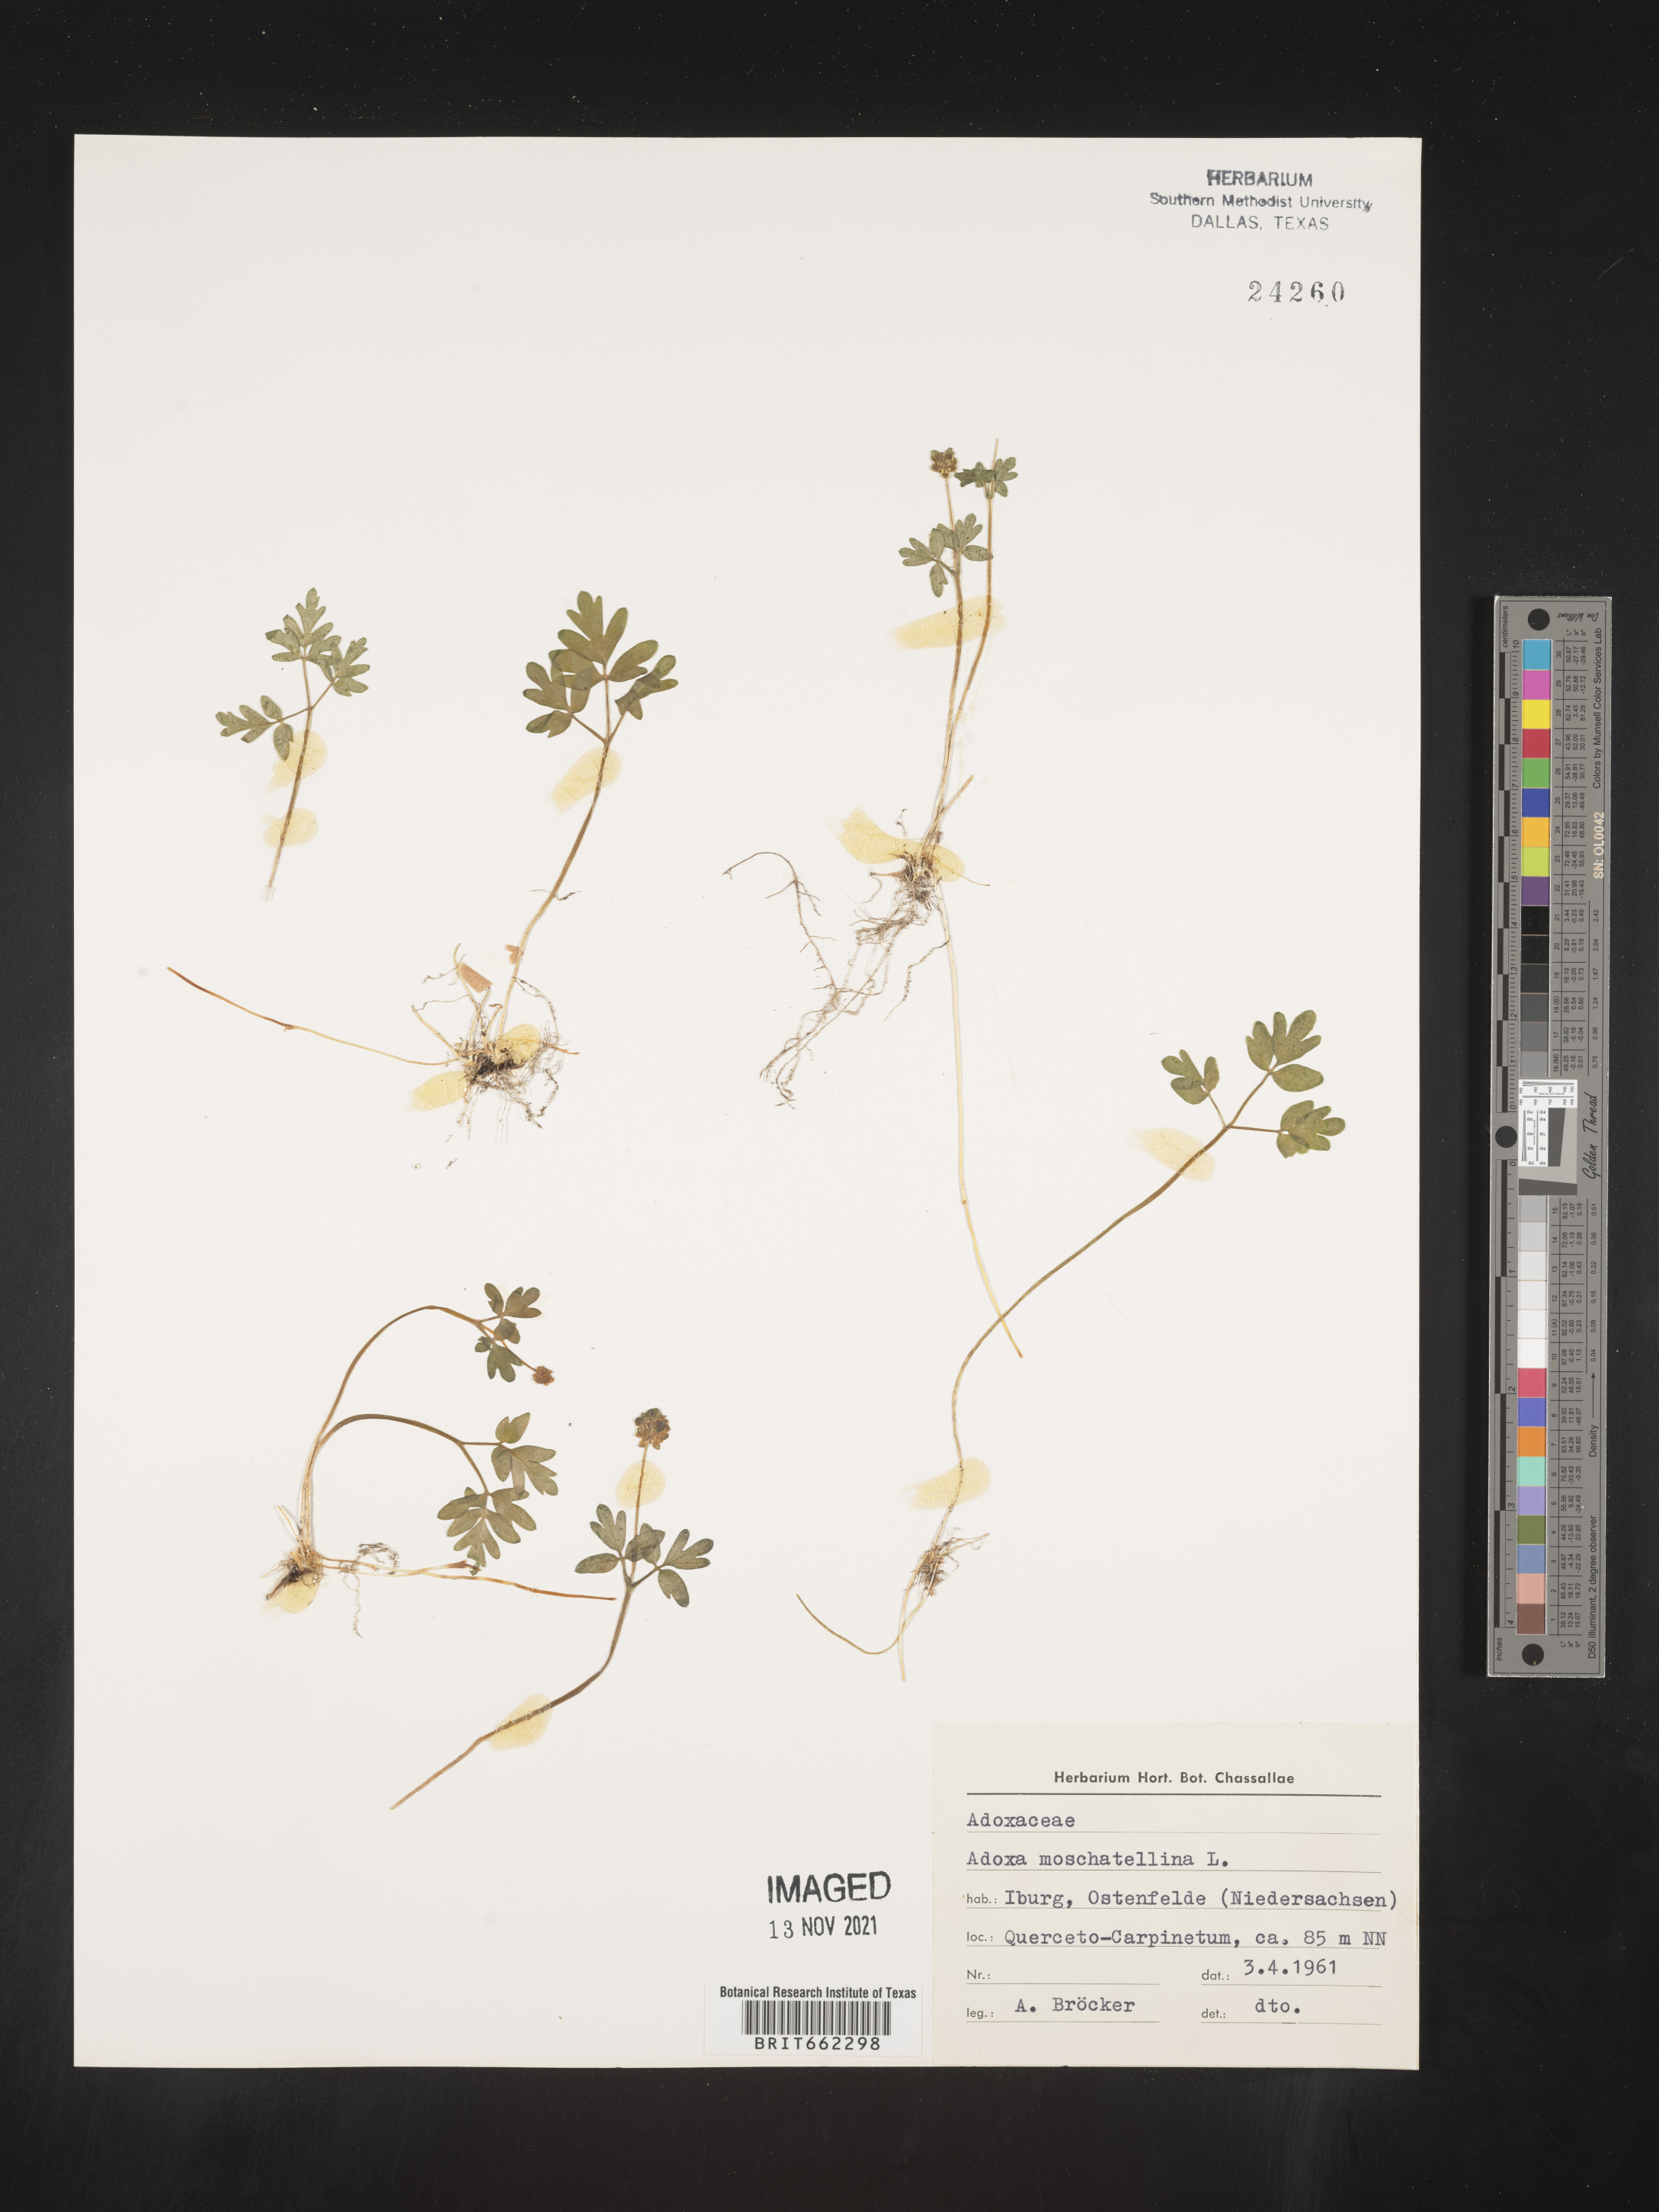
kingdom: Plantae
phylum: Tracheophyta
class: Magnoliopsida
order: Dipsacales
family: Viburnaceae
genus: Adoxa
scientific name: Adoxa
